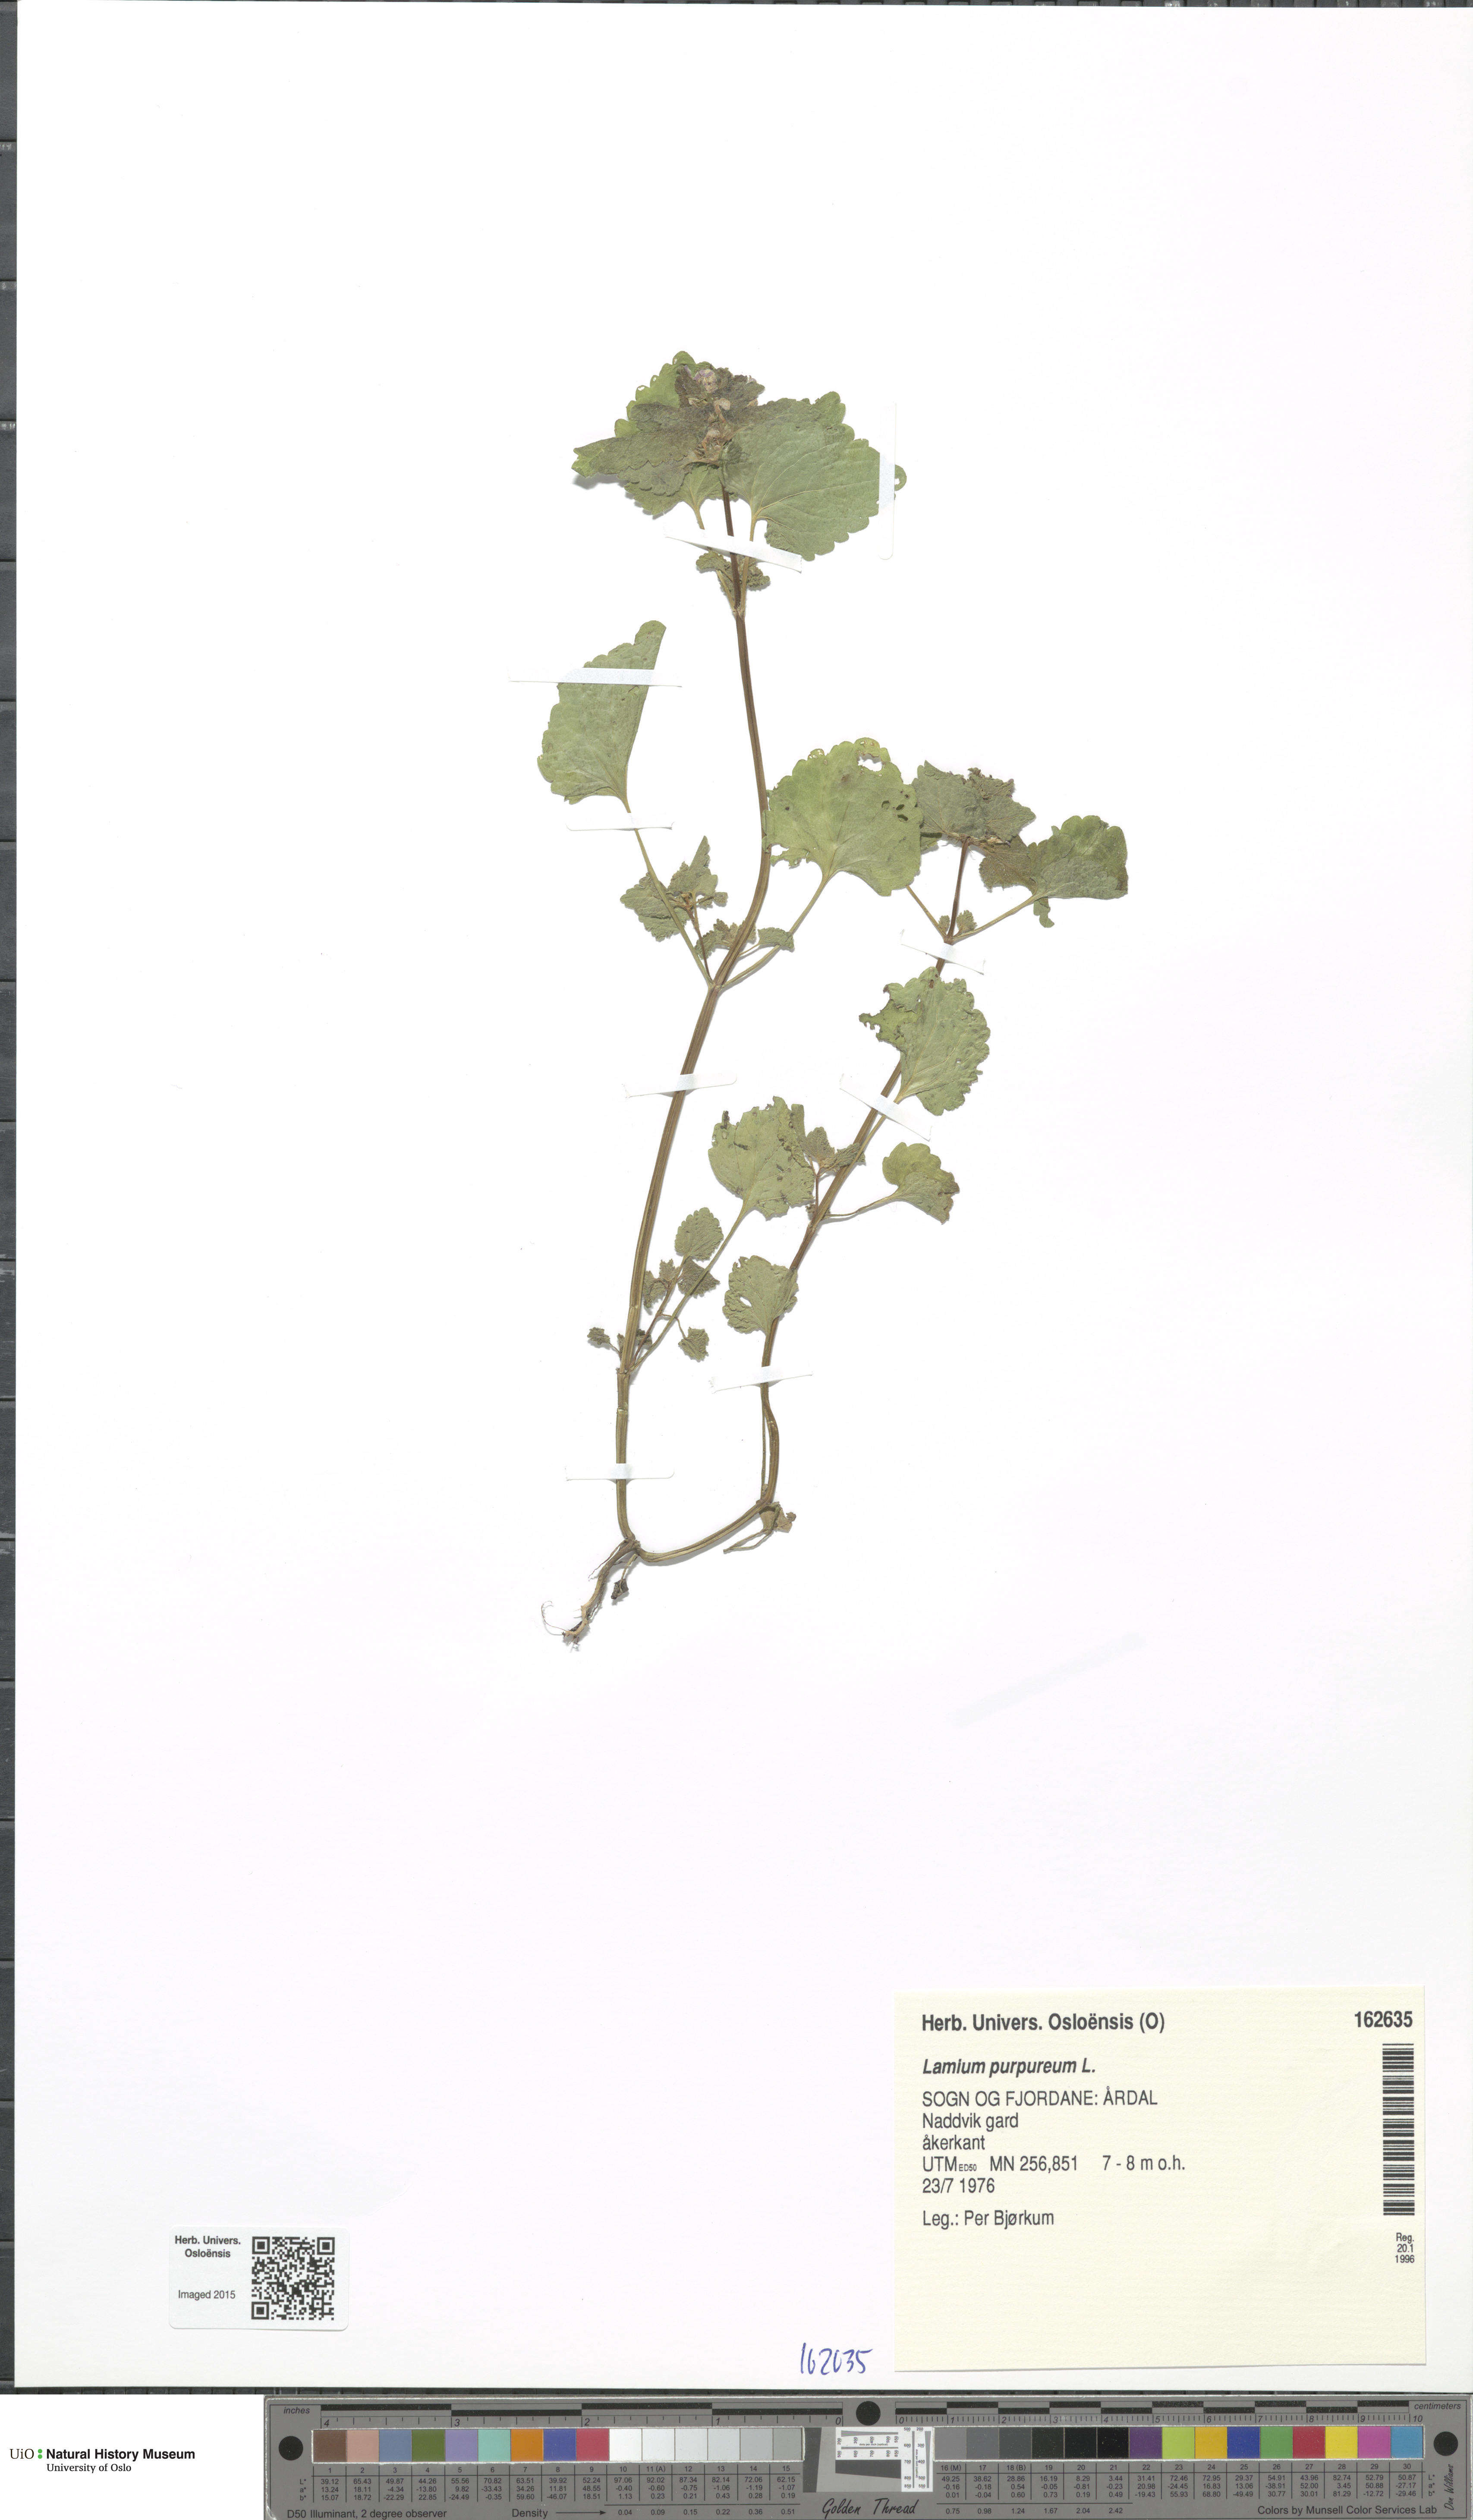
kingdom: Plantae
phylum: Tracheophyta
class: Magnoliopsida
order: Lamiales
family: Lamiaceae
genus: Lamium
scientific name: Lamium purpureum
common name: Red dead-nettle
